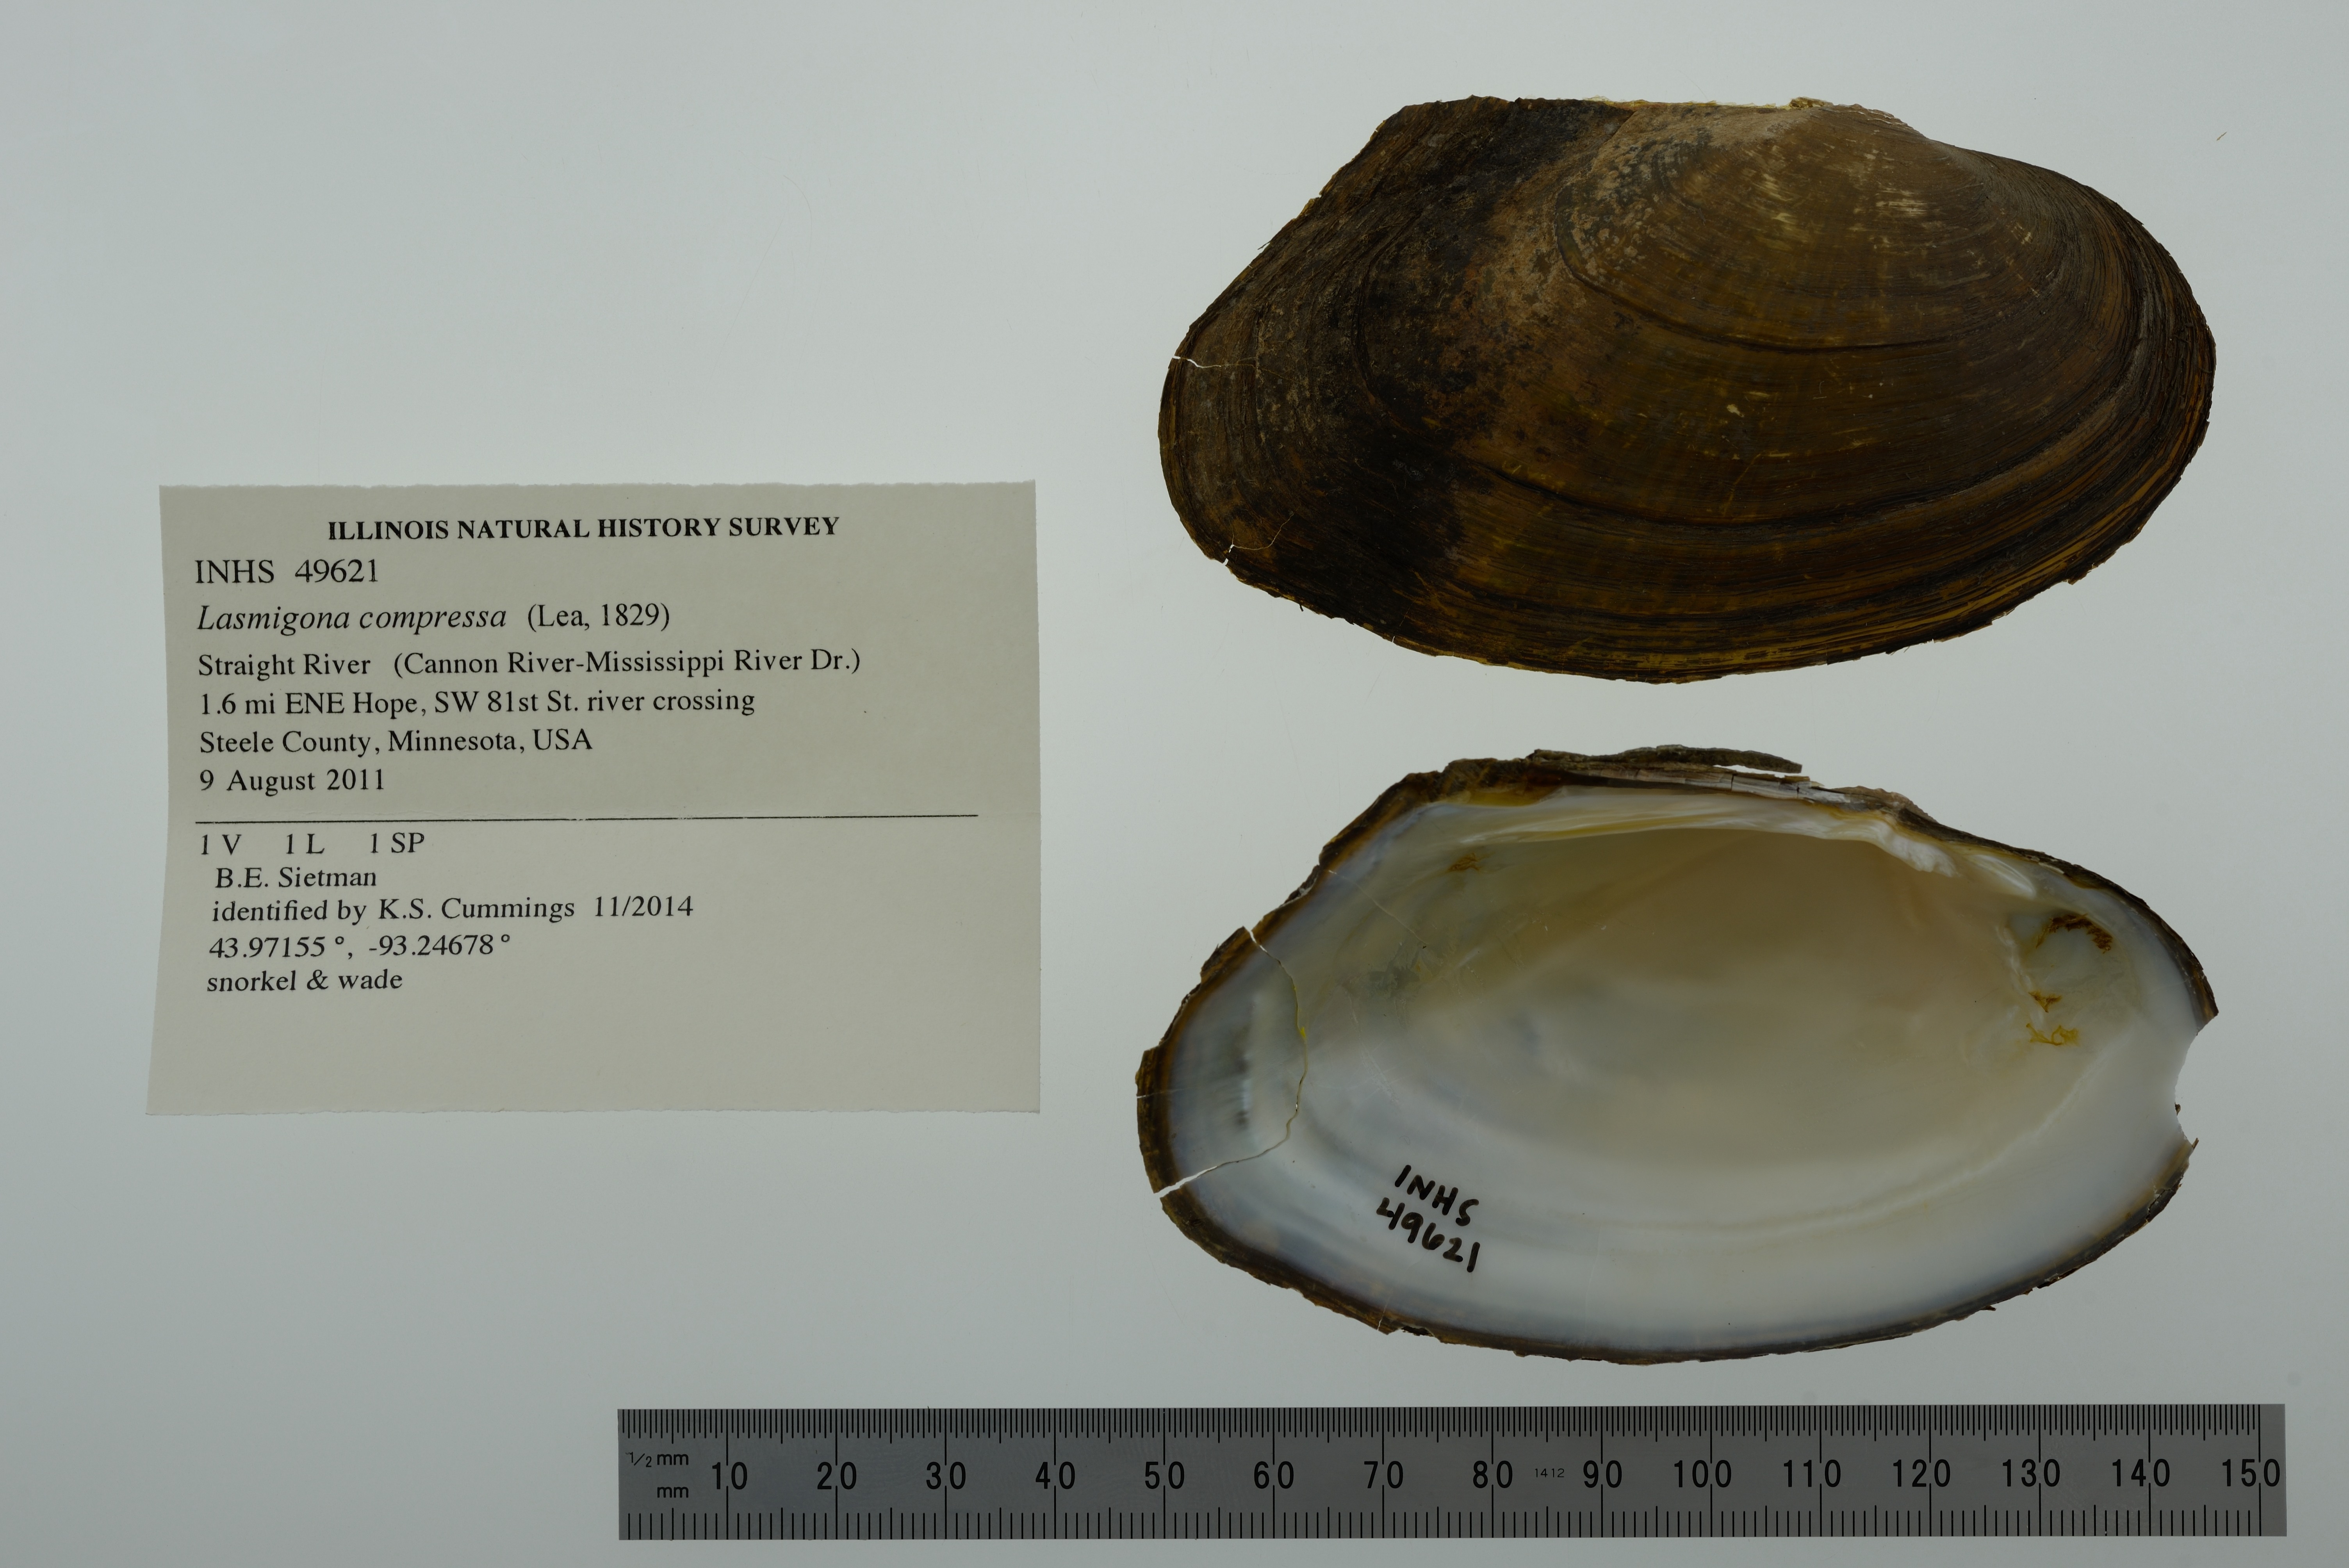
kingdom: Animalia
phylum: Mollusca
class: Bivalvia
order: Unionida
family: Unionidae
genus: Lasmigona
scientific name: Lasmigona compressa
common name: Creek heelsplitter
